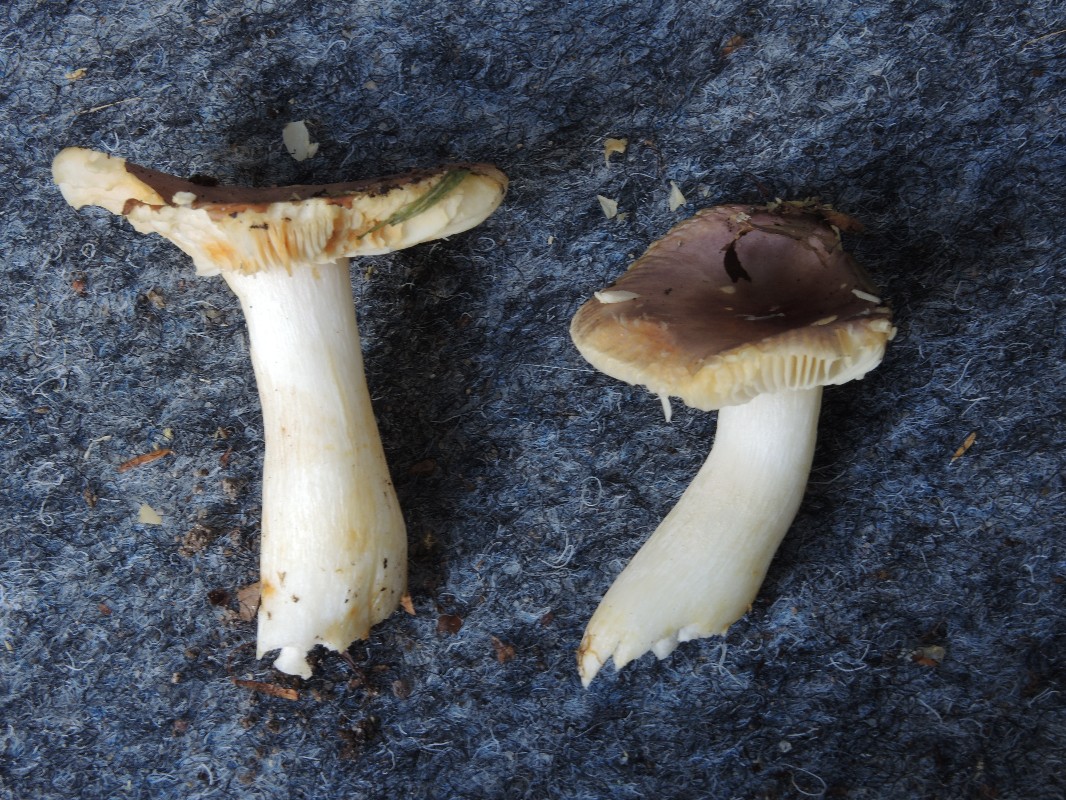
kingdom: Fungi
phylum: Basidiomycota
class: Agaricomycetes
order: Russulales
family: Russulaceae
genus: Russula
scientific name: Russula puellaris
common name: gulstokket skørhat
